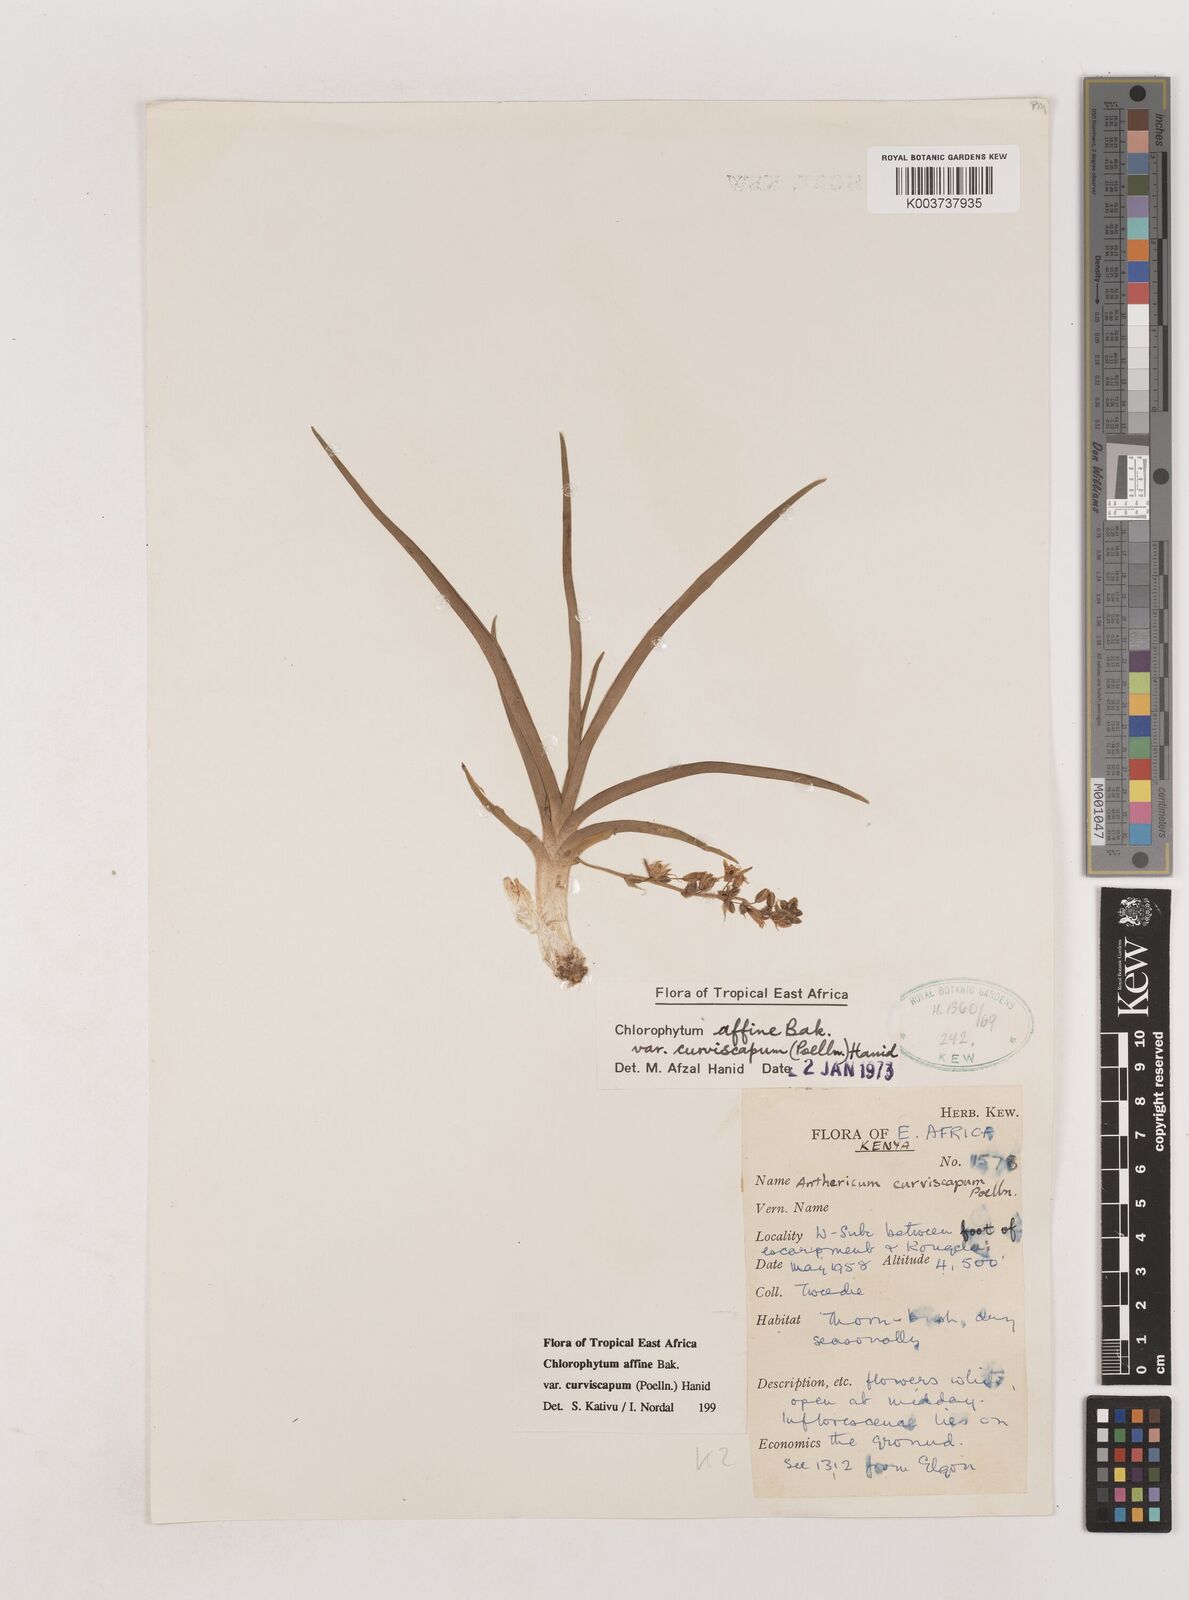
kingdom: Plantae
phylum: Tracheophyta
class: Liliopsida
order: Asparagales
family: Asparagaceae
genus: Chlorophytum
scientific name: Chlorophytum tordense
